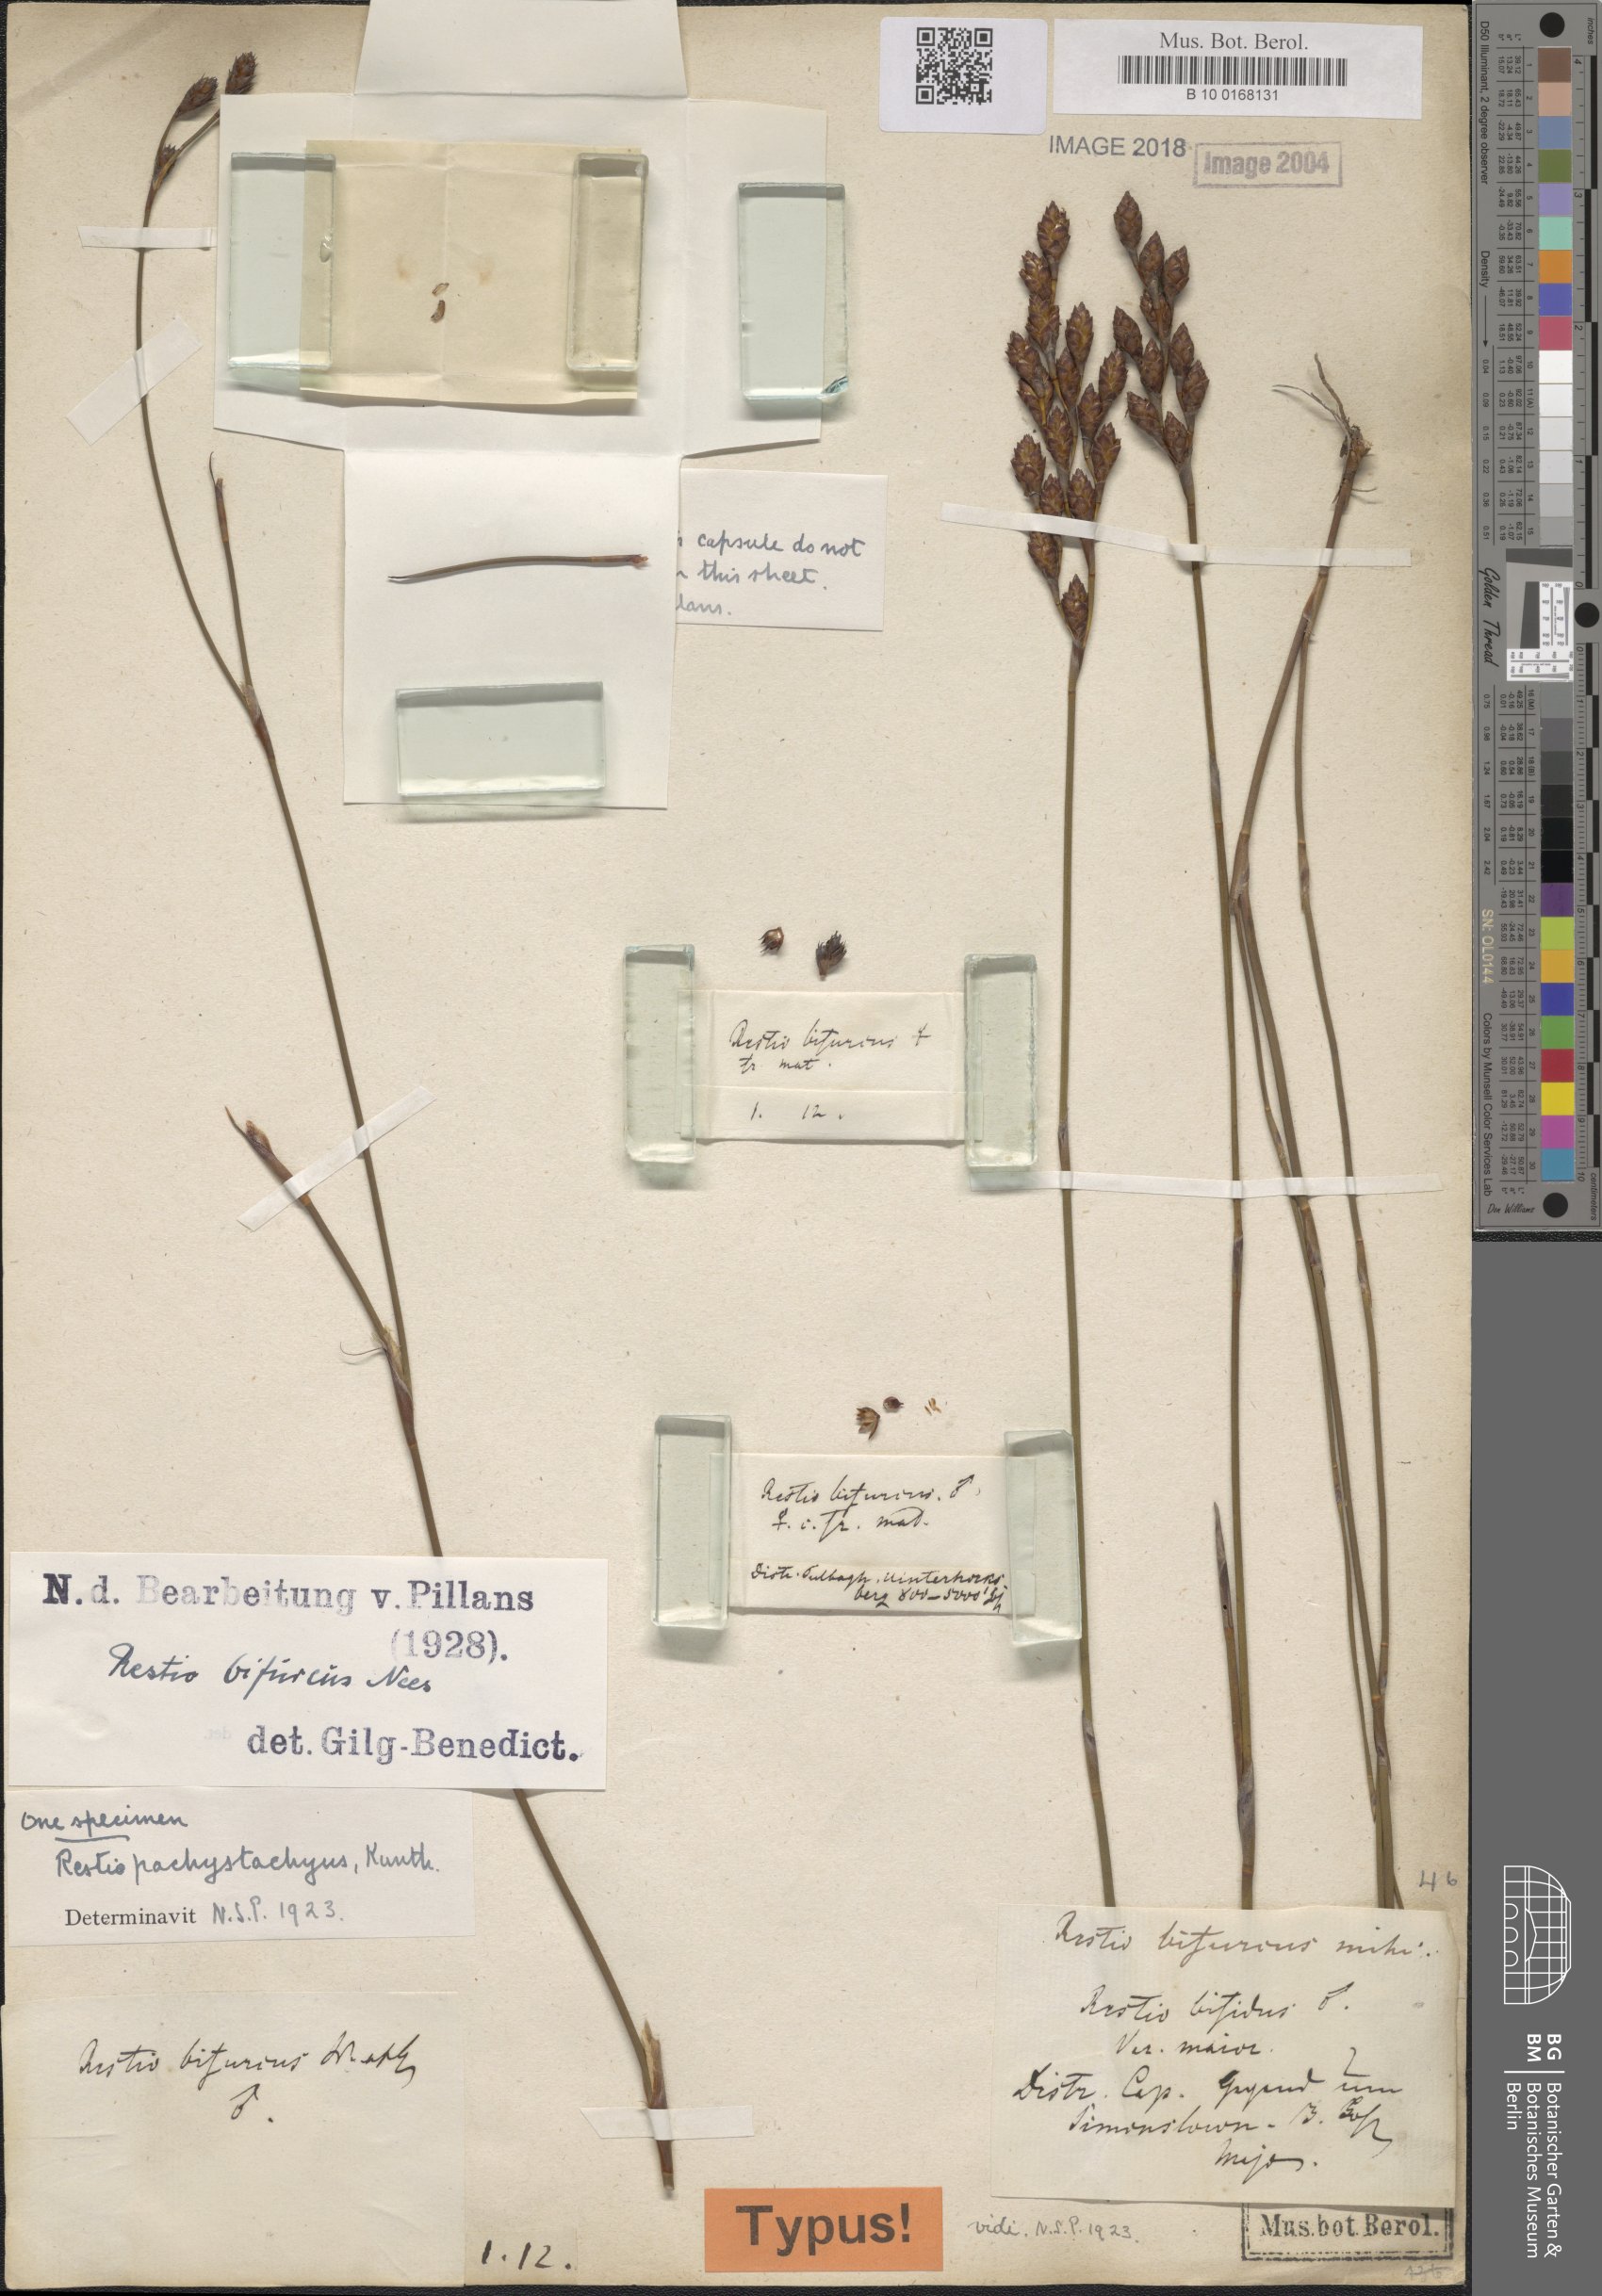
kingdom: Plantae
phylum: Tracheophyta
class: Liliopsida
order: Poales
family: Restionaceae
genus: Restio
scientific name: Restio bifurcus
